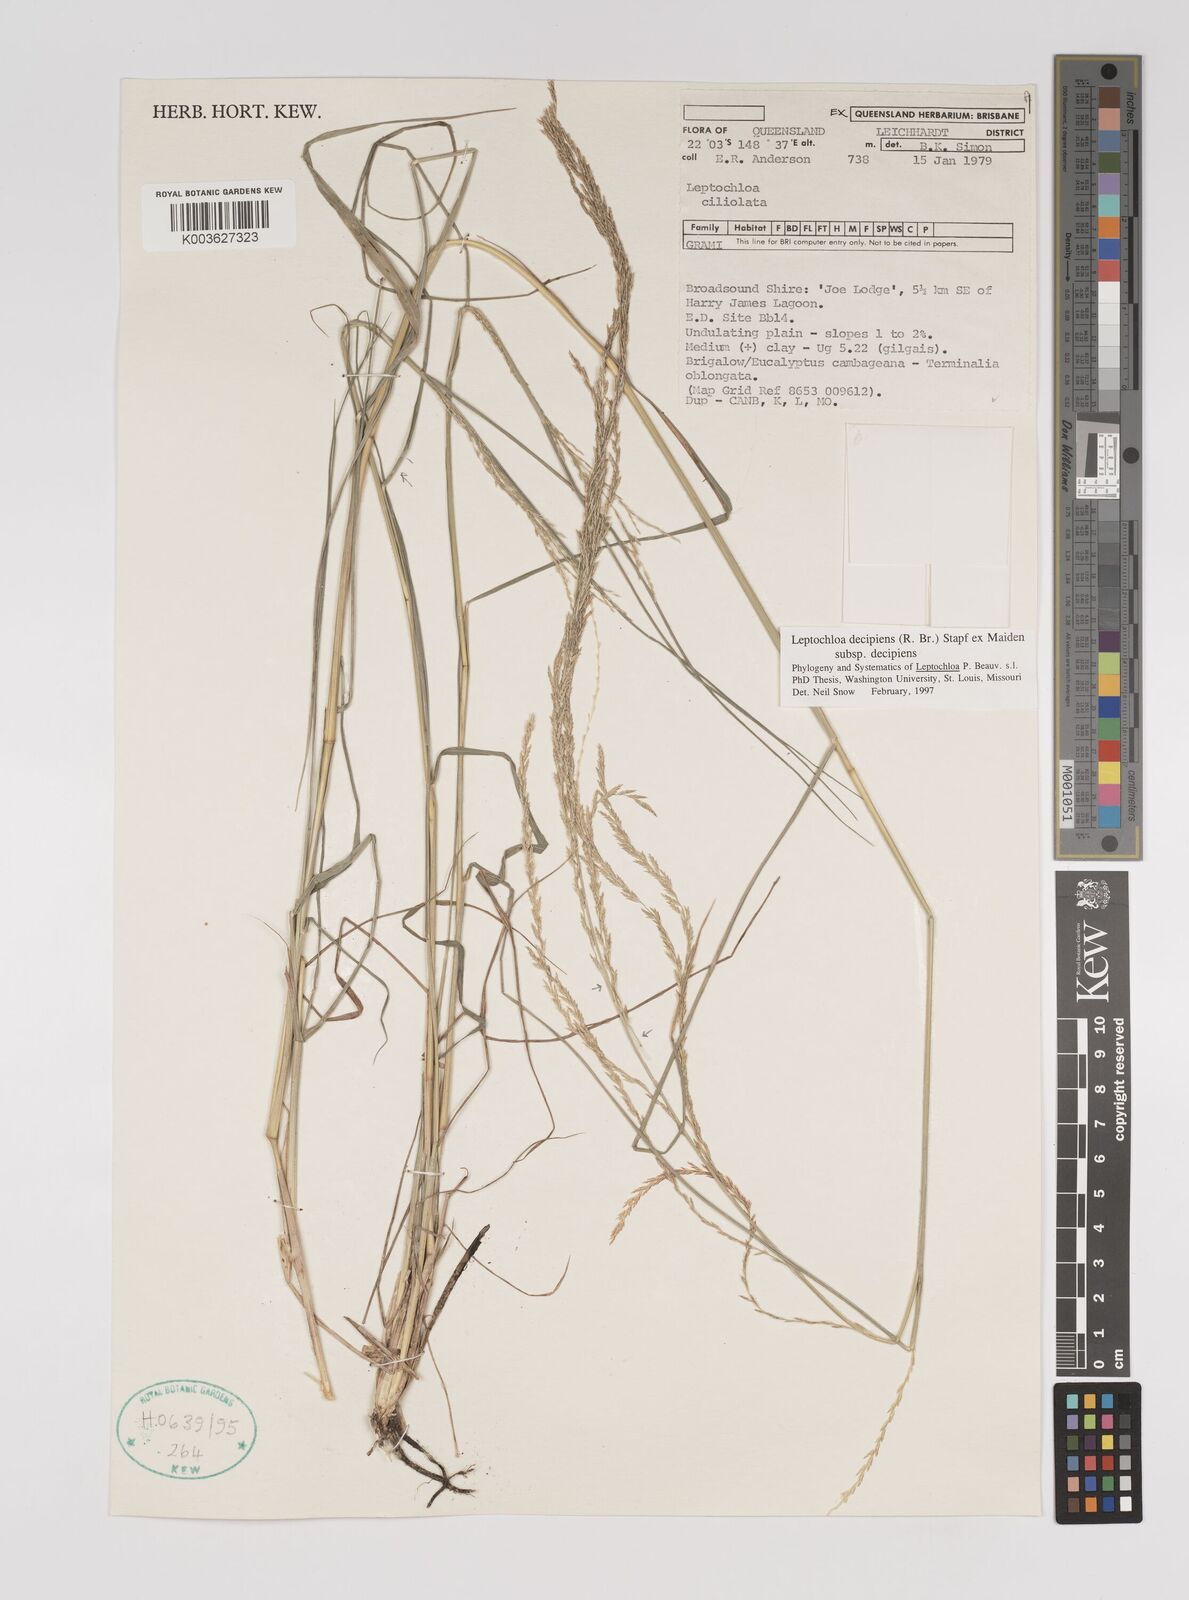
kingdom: Plantae
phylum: Tracheophyta
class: Liliopsida
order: Poales
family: Poaceae
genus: Leptochloa
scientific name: Leptochloa decipiens
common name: Australian sprangletop
